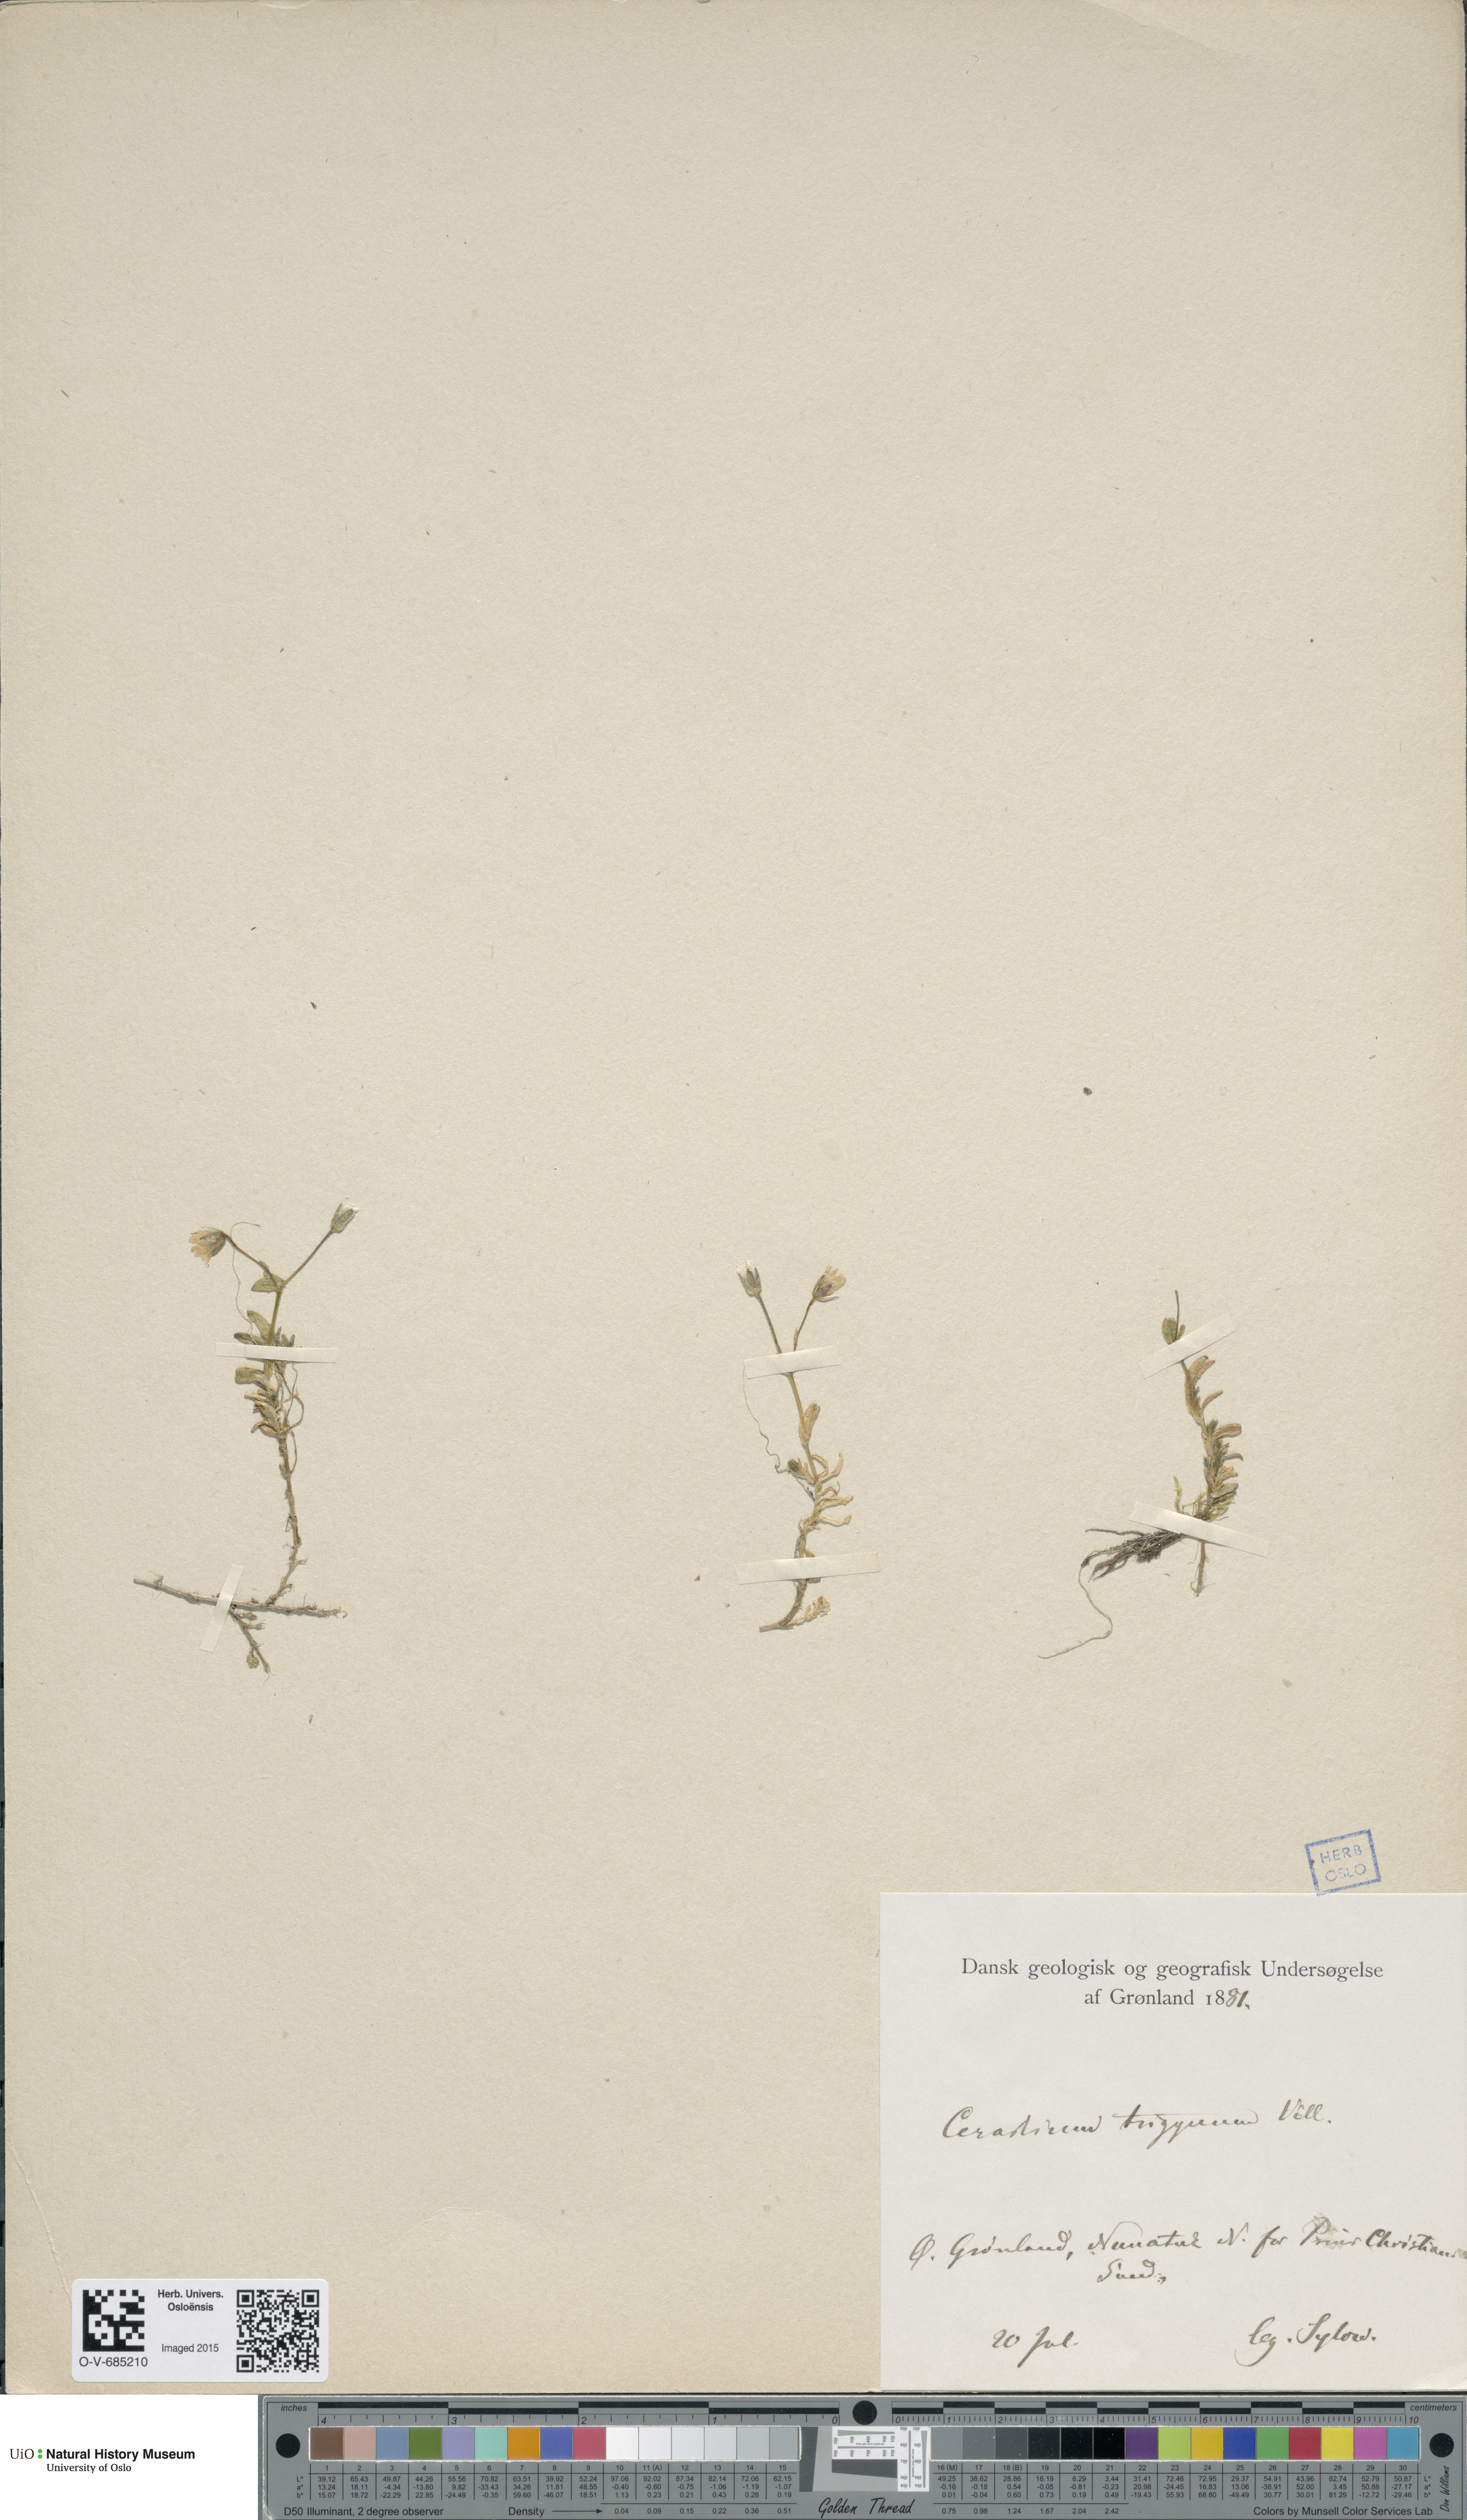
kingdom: Plantae
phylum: Tracheophyta
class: Magnoliopsida
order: Caryophyllales
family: Caryophyllaceae
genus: Dichodon
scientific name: Dichodon cerastoides
